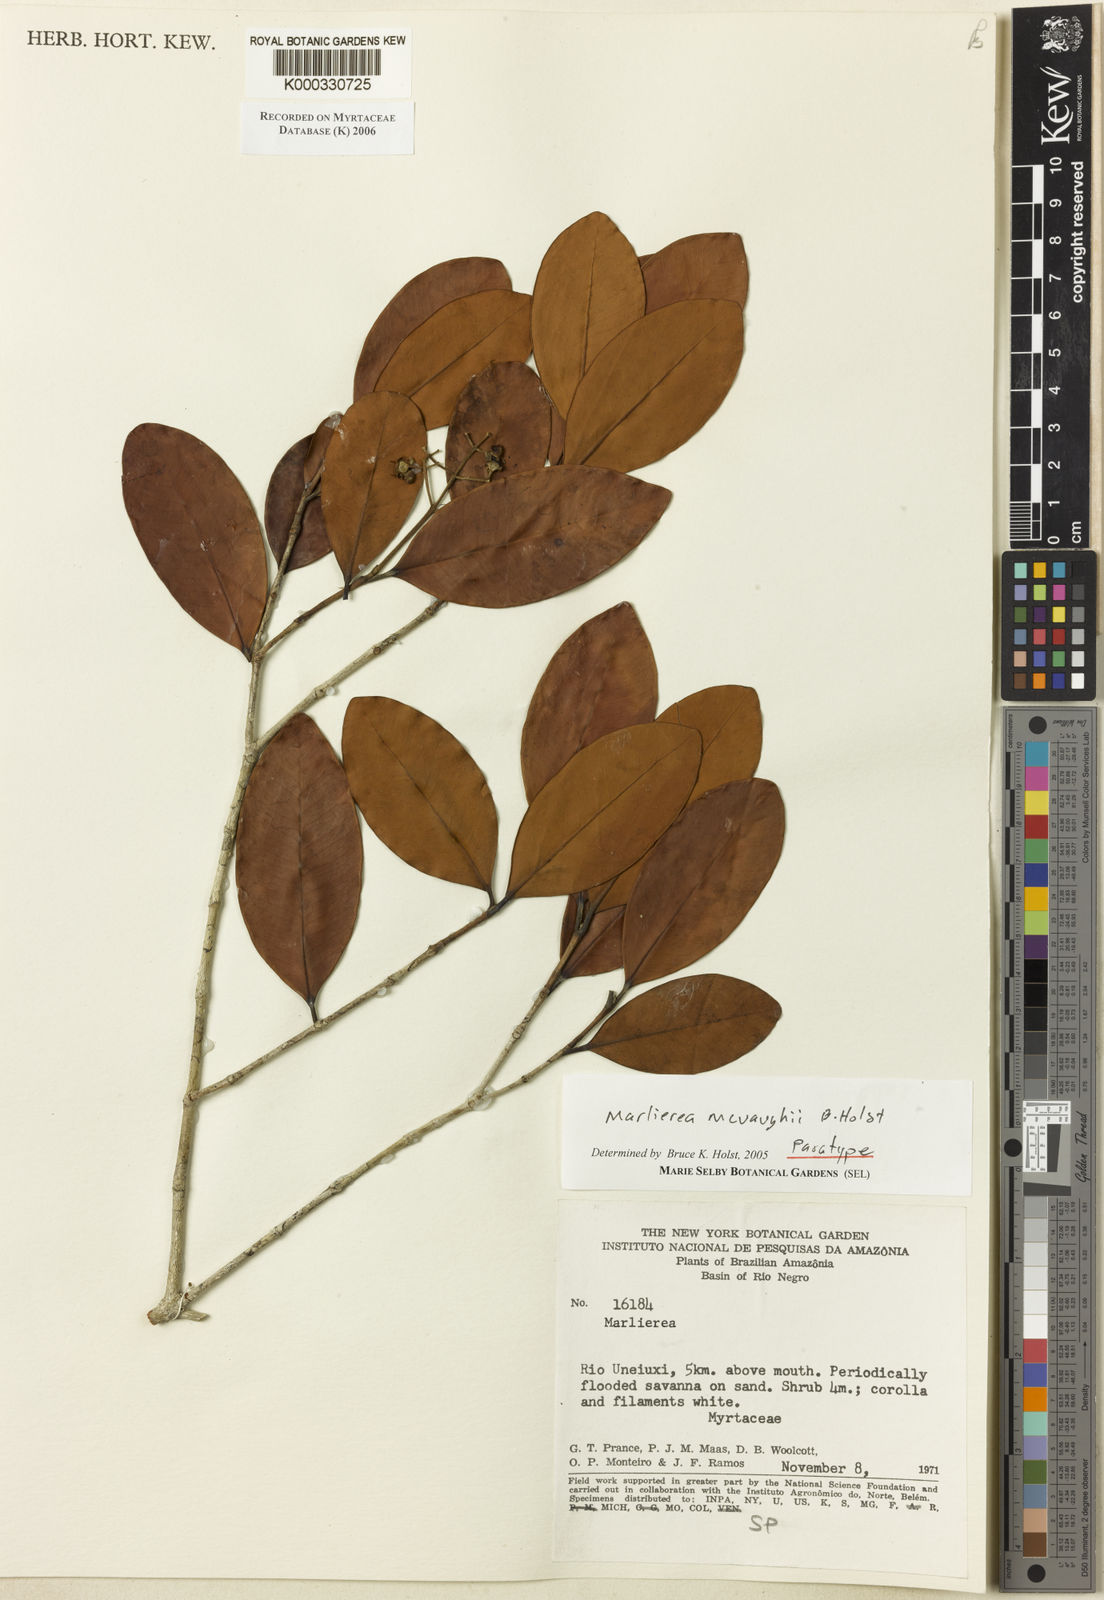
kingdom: Plantae
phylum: Tracheophyta
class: Magnoliopsida
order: Myrtales
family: Myrtaceae
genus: Myrcia
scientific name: Myrcia mcvaughii
